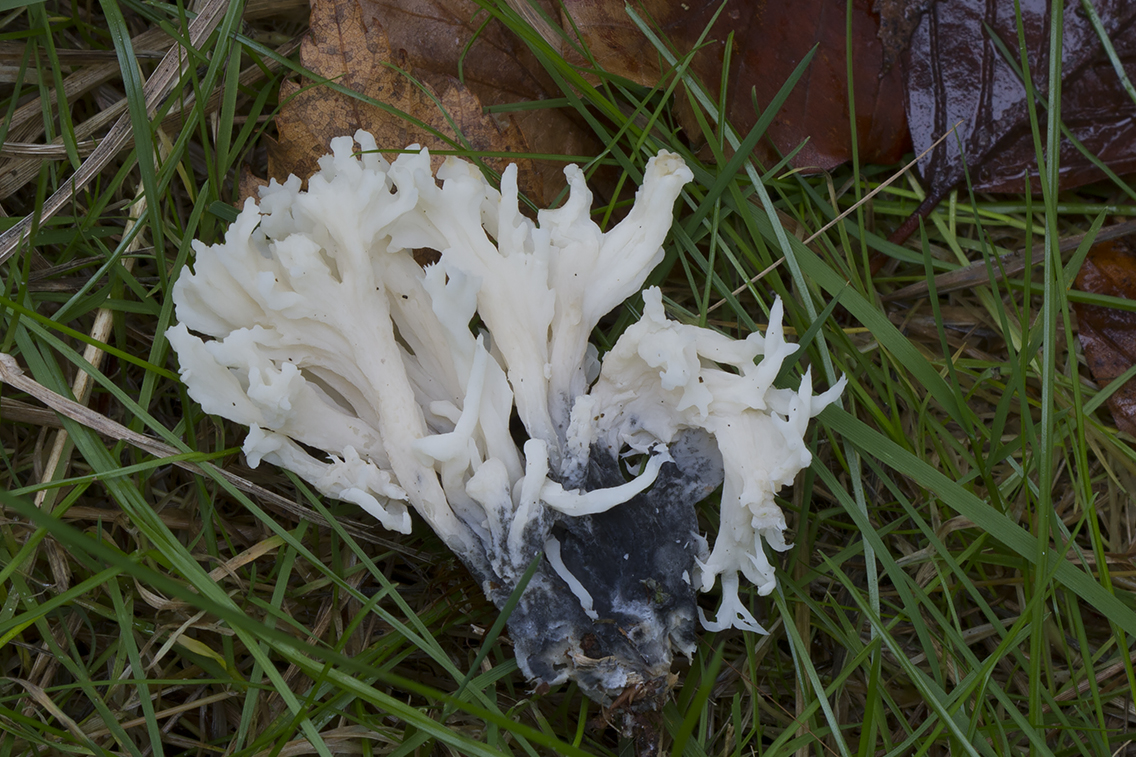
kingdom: Fungi
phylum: Ascomycota
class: Sordariomycetes
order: Sordariales
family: Helminthosphaeriaceae
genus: Helminthosphaeria
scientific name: Helminthosphaeria clavariarum
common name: trold-svampesnyltekerne
